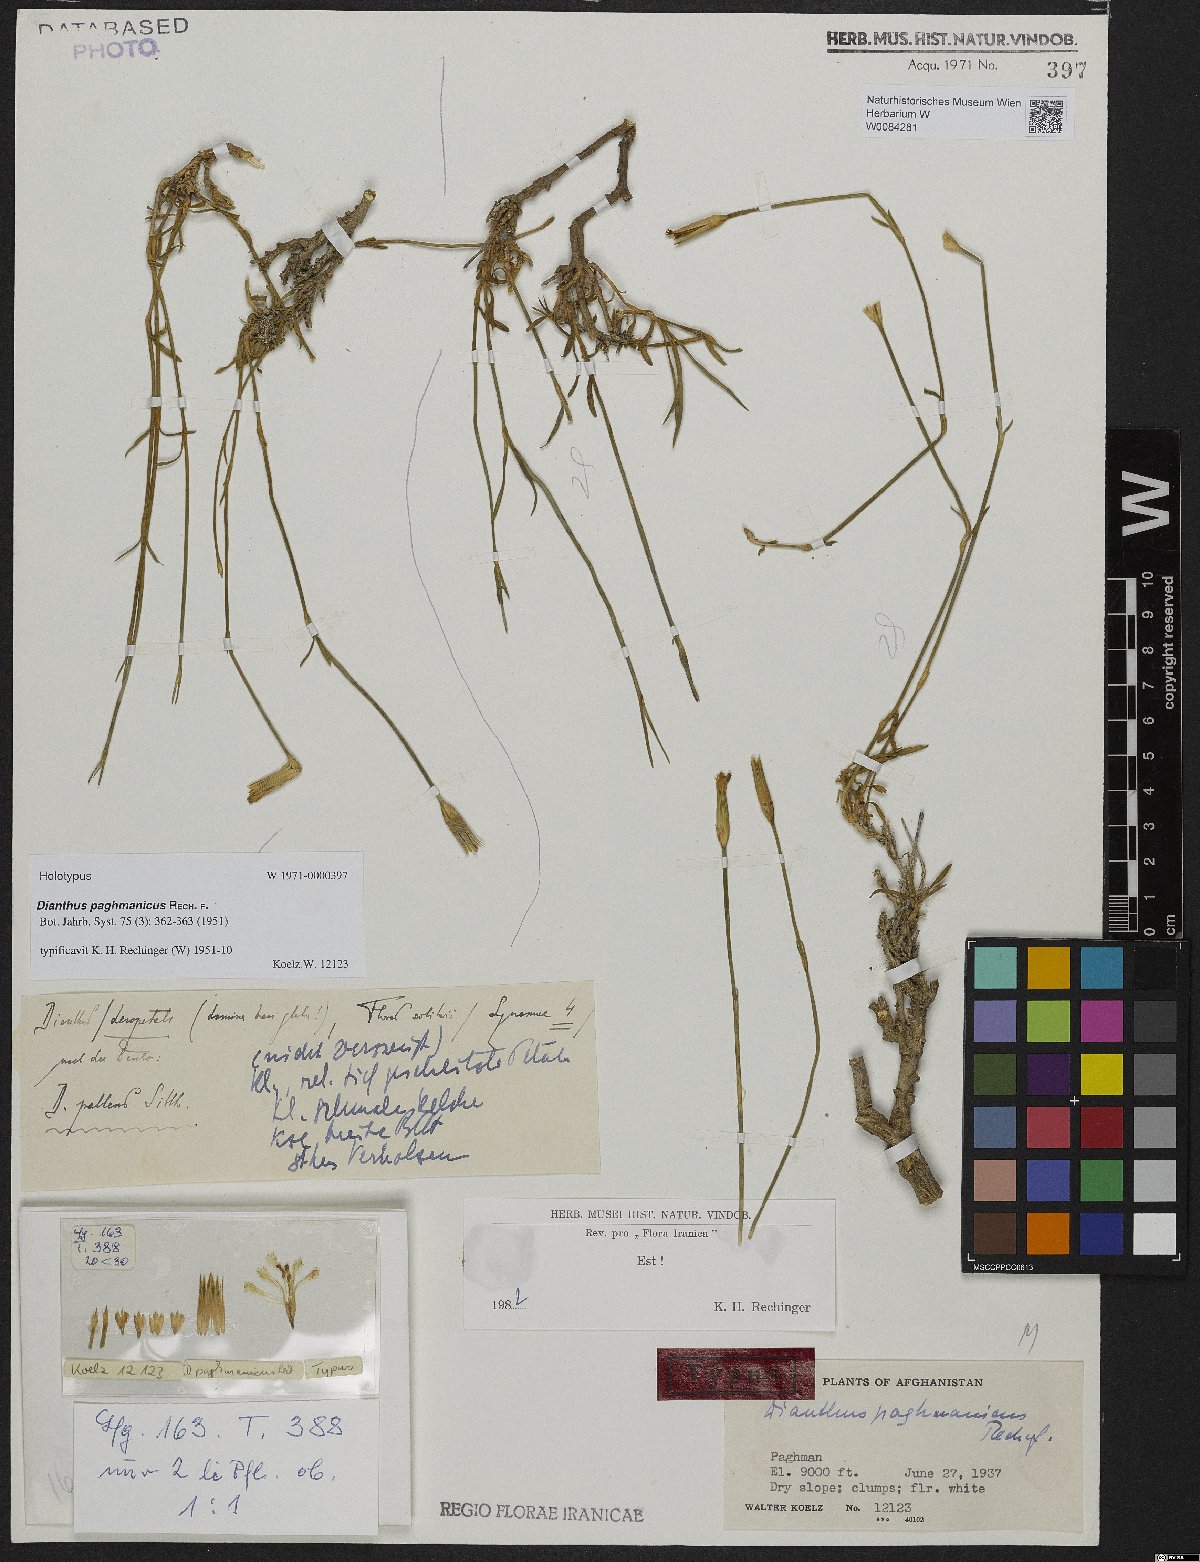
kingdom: Plantae
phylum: Tracheophyta
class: Magnoliopsida
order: Caryophyllales
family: Caryophyllaceae
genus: Dianthus
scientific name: Dianthus paghmanicus
